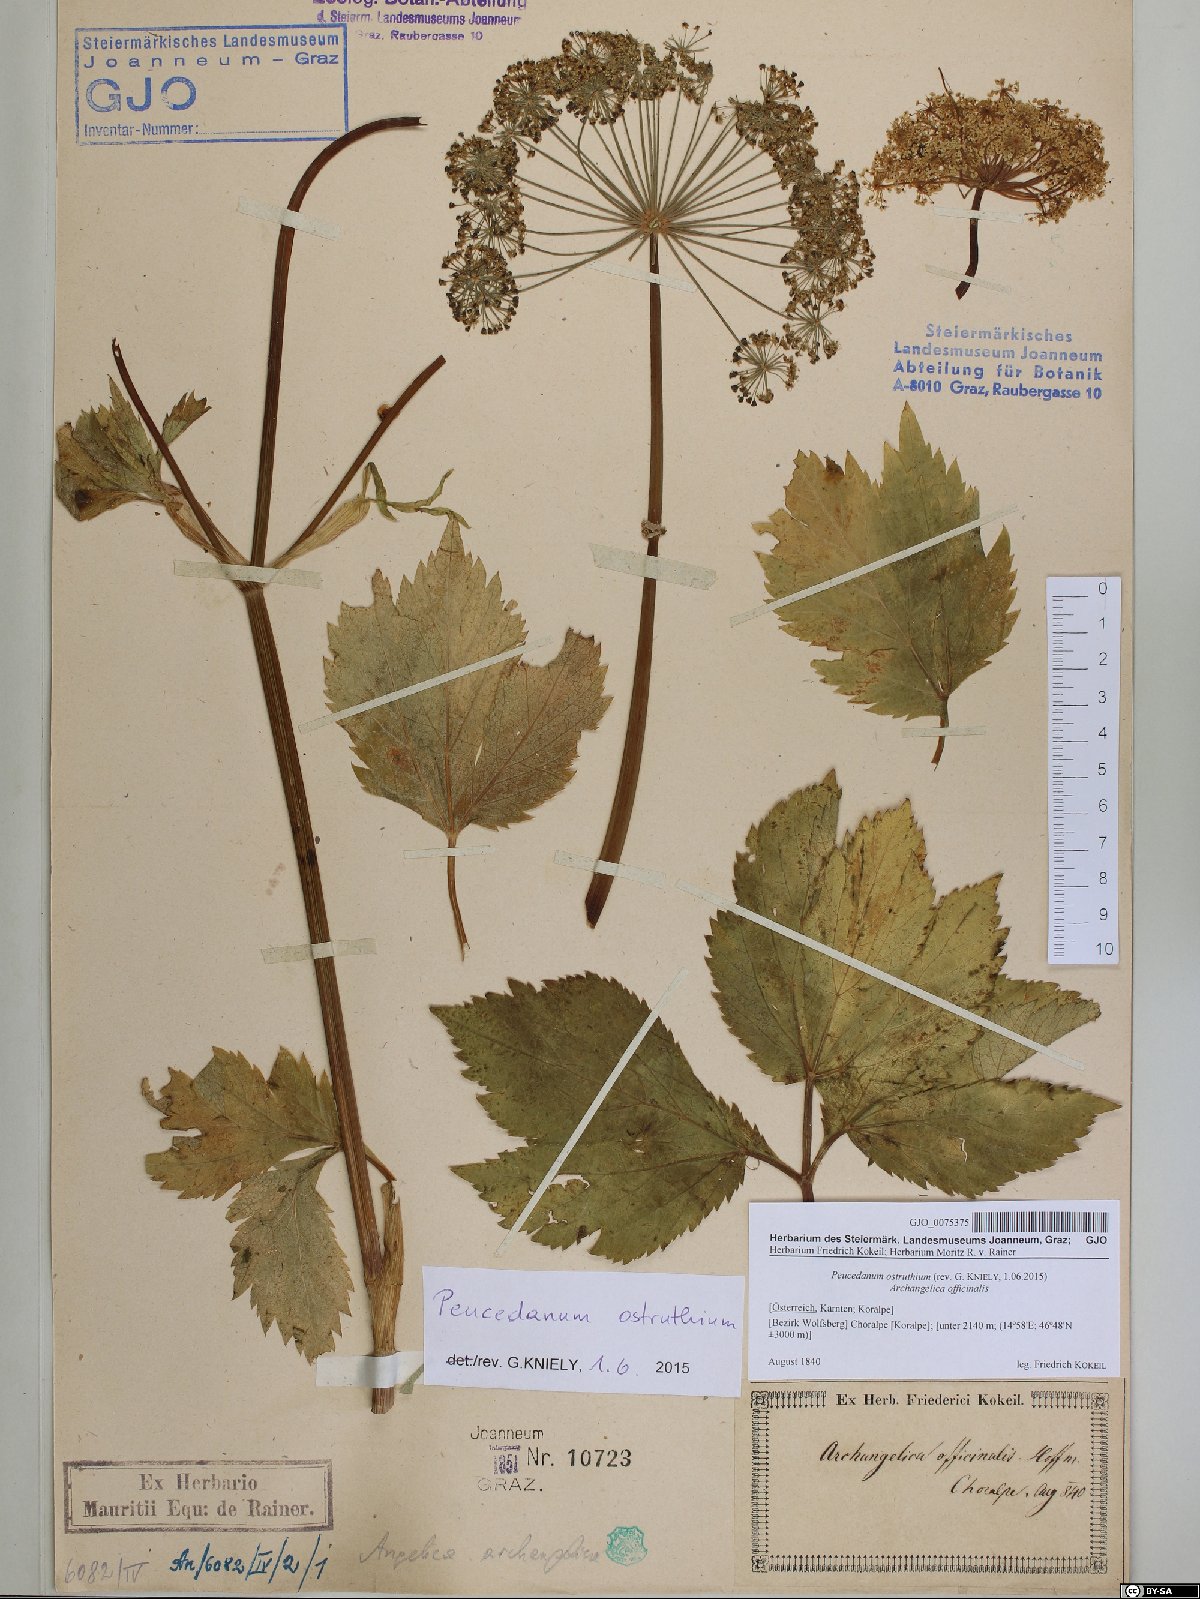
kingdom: Plantae
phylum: Tracheophyta
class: Magnoliopsida
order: Apiales
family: Apiaceae
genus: Imperatoria
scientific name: Imperatoria ostruthium
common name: Masterwort
